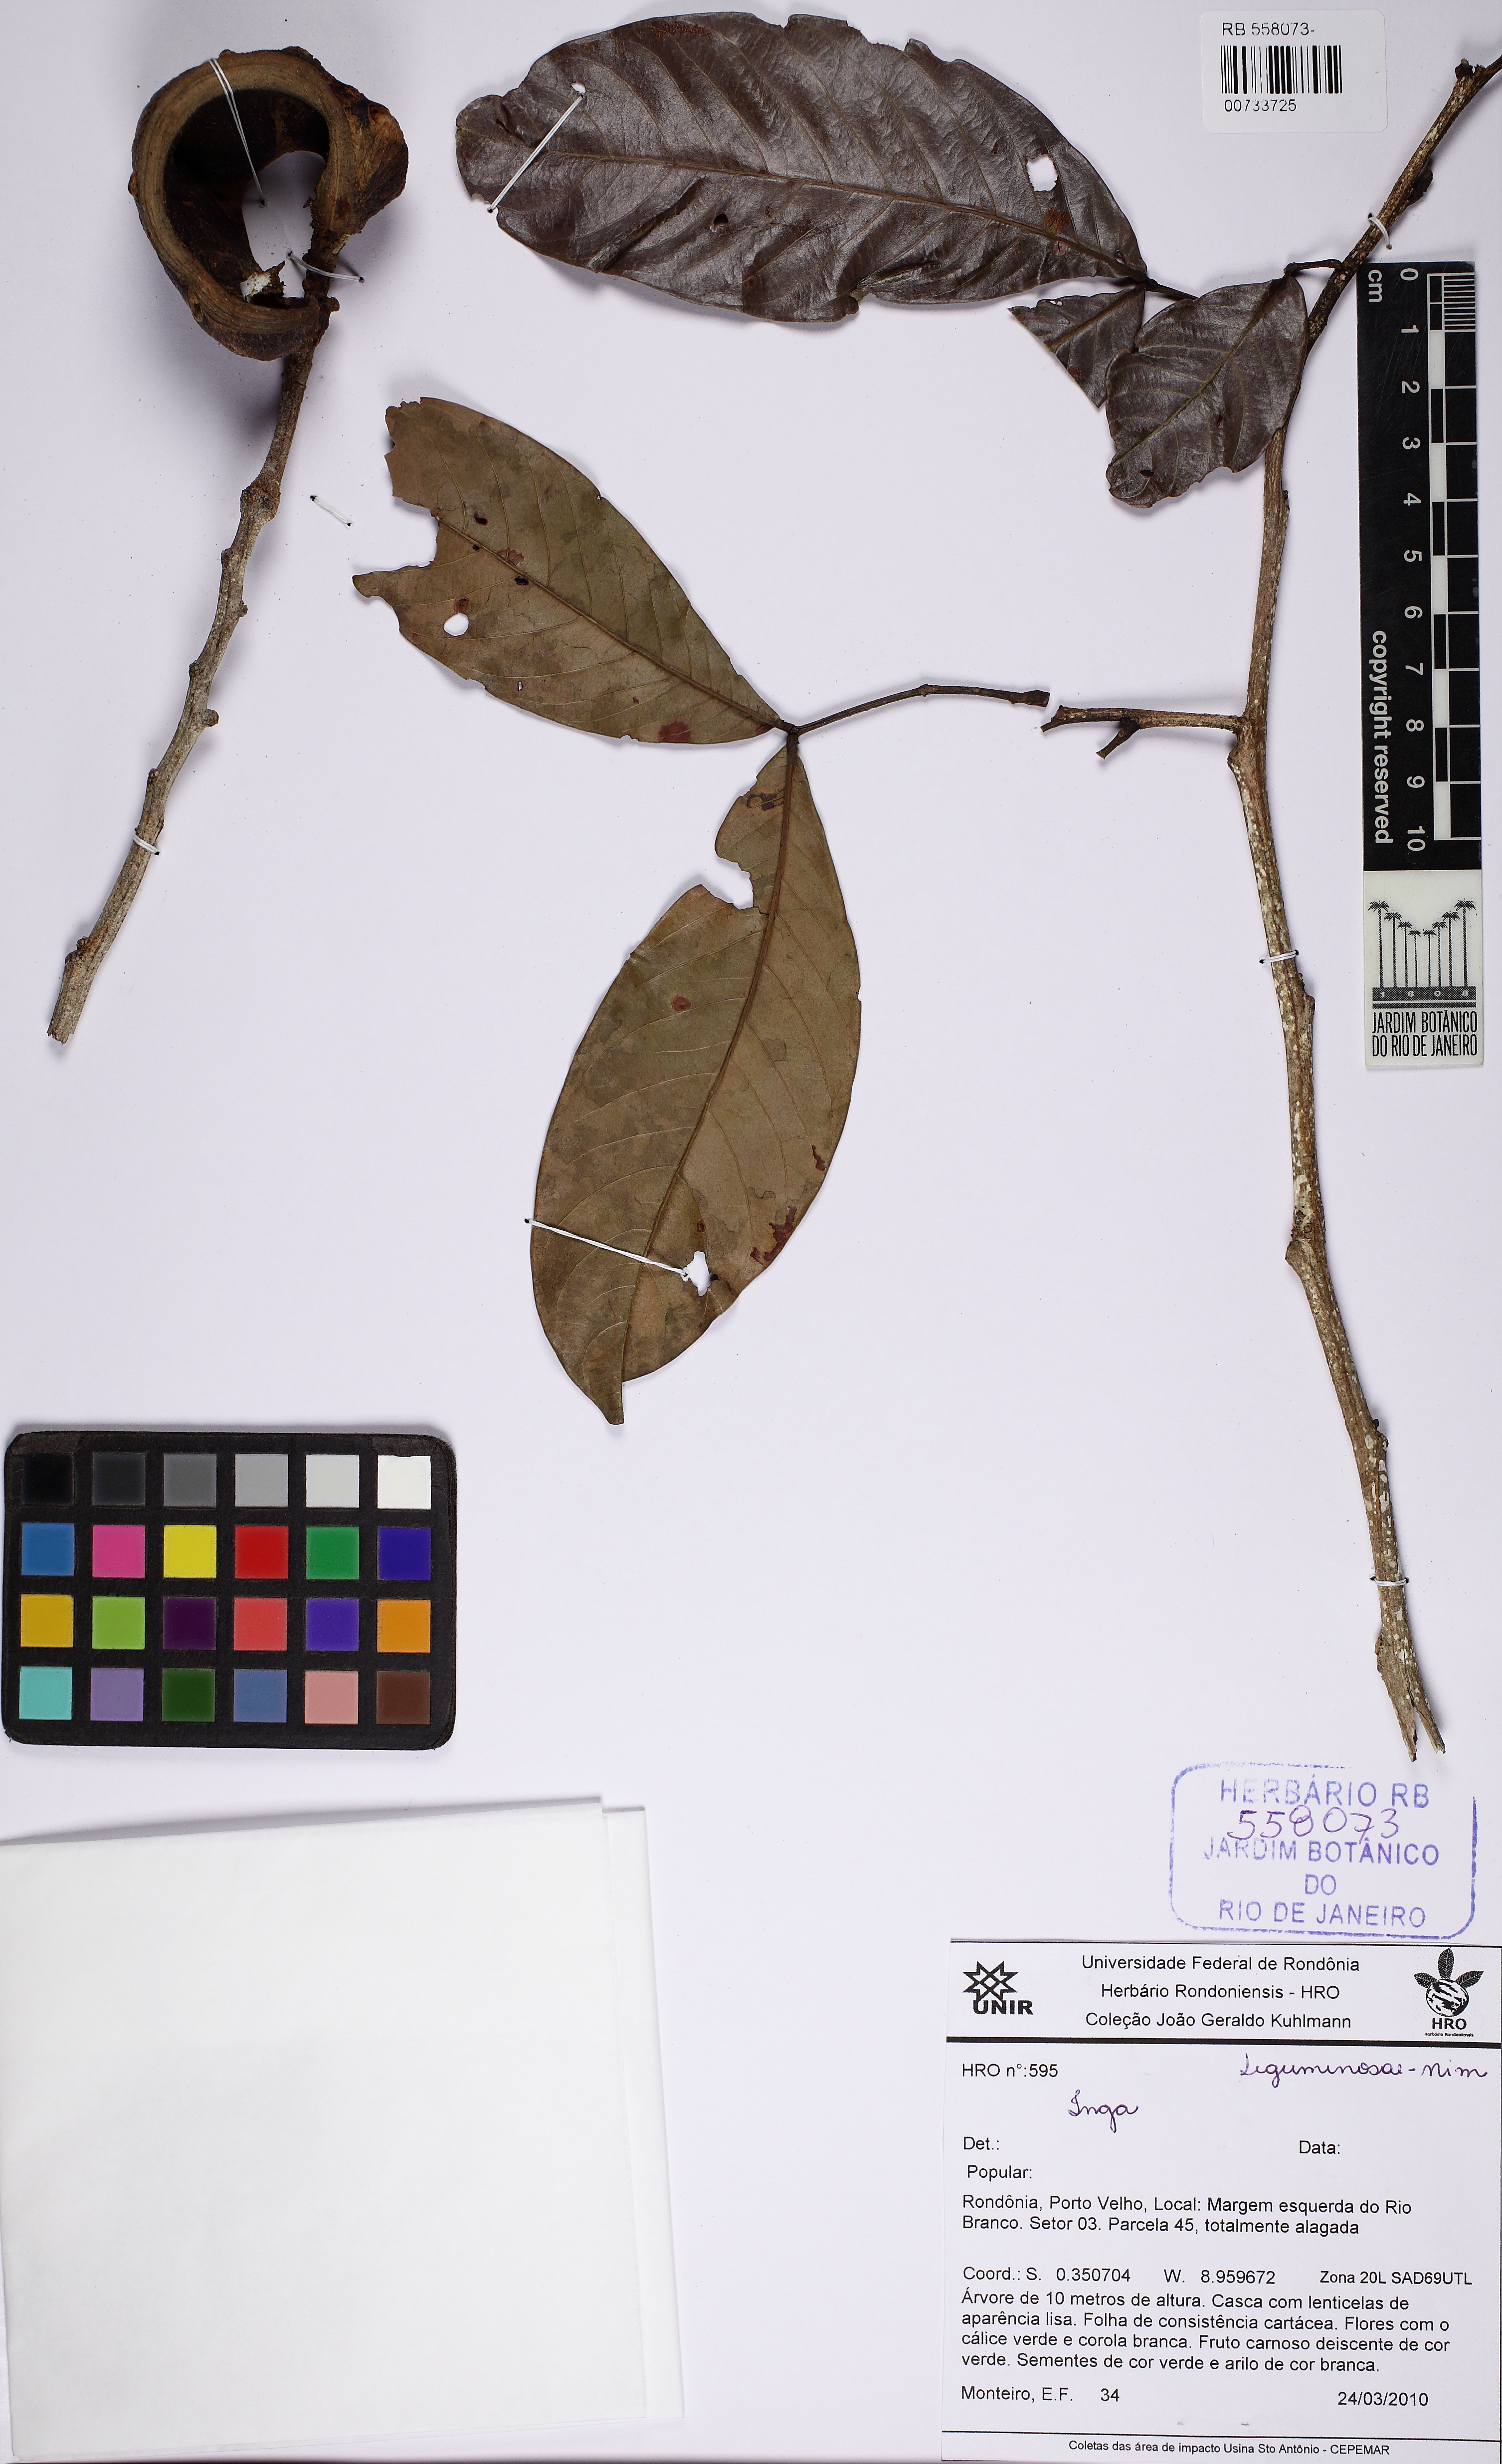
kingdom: Plantae
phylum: Tracheophyta
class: Magnoliopsida
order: Fabales
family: Fabaceae
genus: Inga
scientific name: Inga
